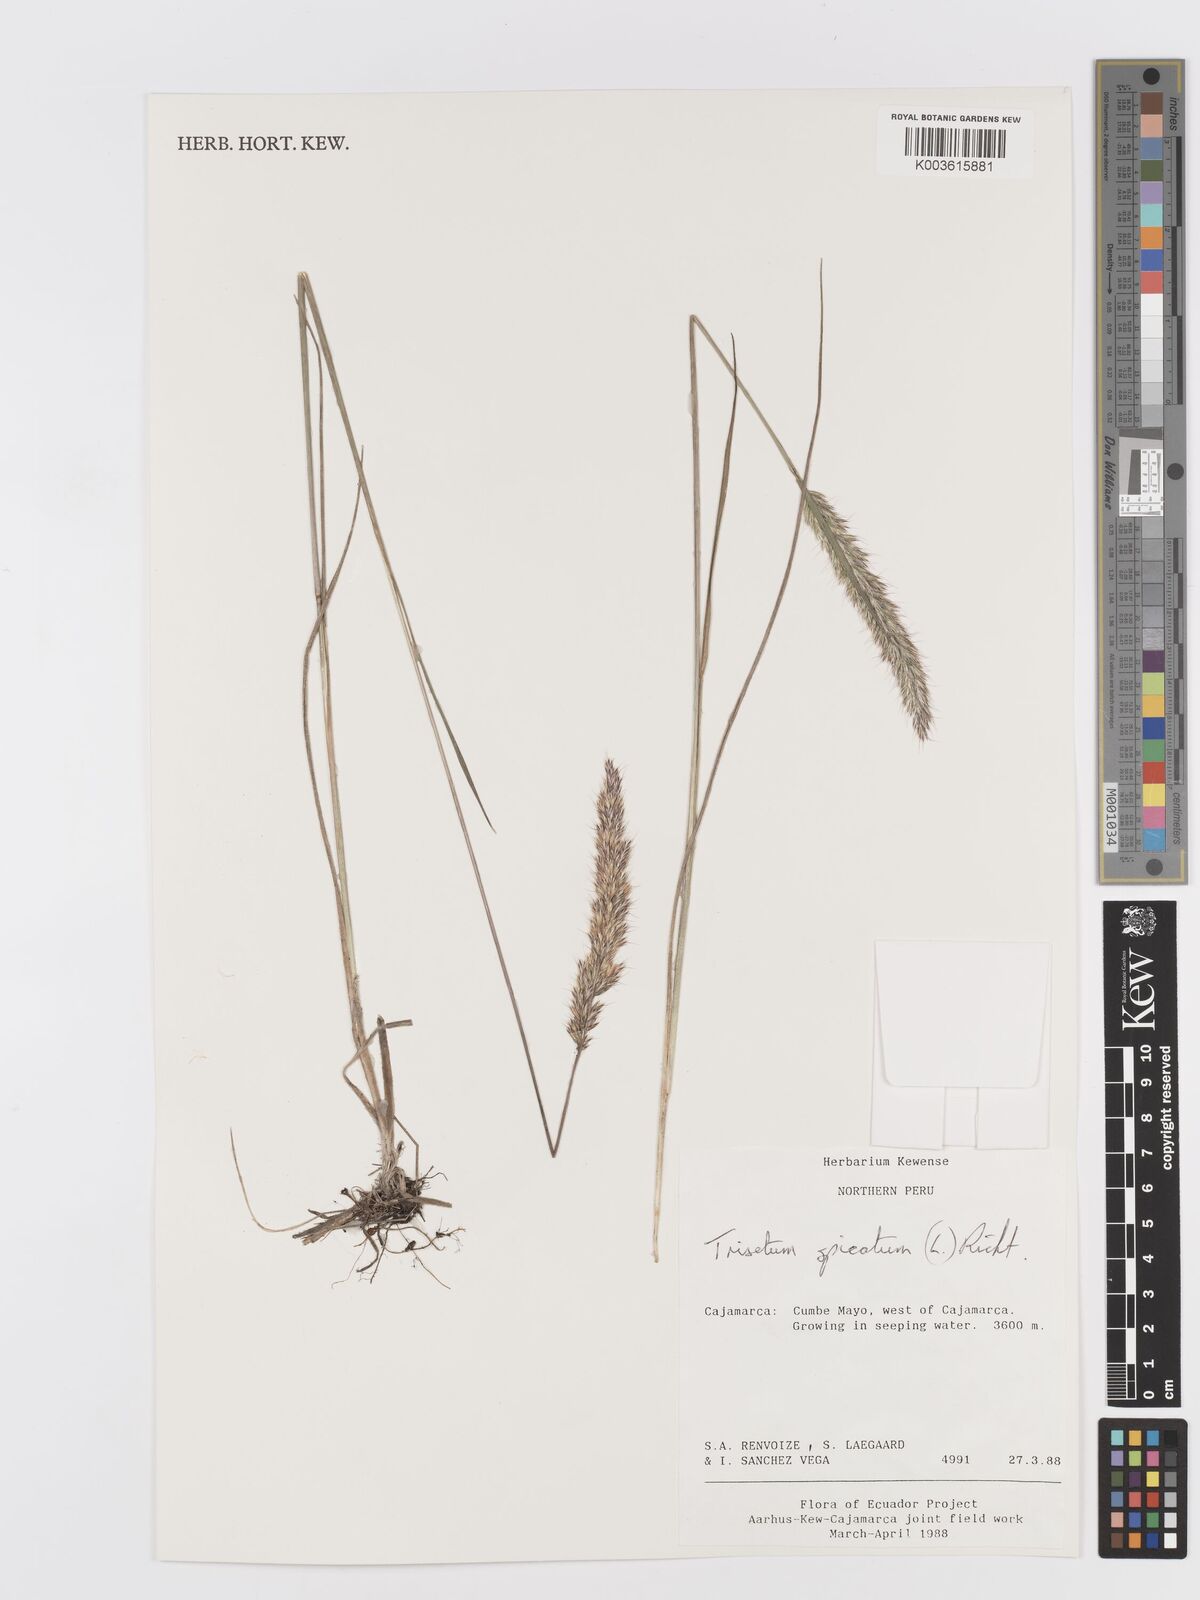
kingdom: Plantae
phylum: Tracheophyta
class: Liliopsida
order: Poales
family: Poaceae
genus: Koeleria
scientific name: Koeleria spicata
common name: Mountain trisetum
